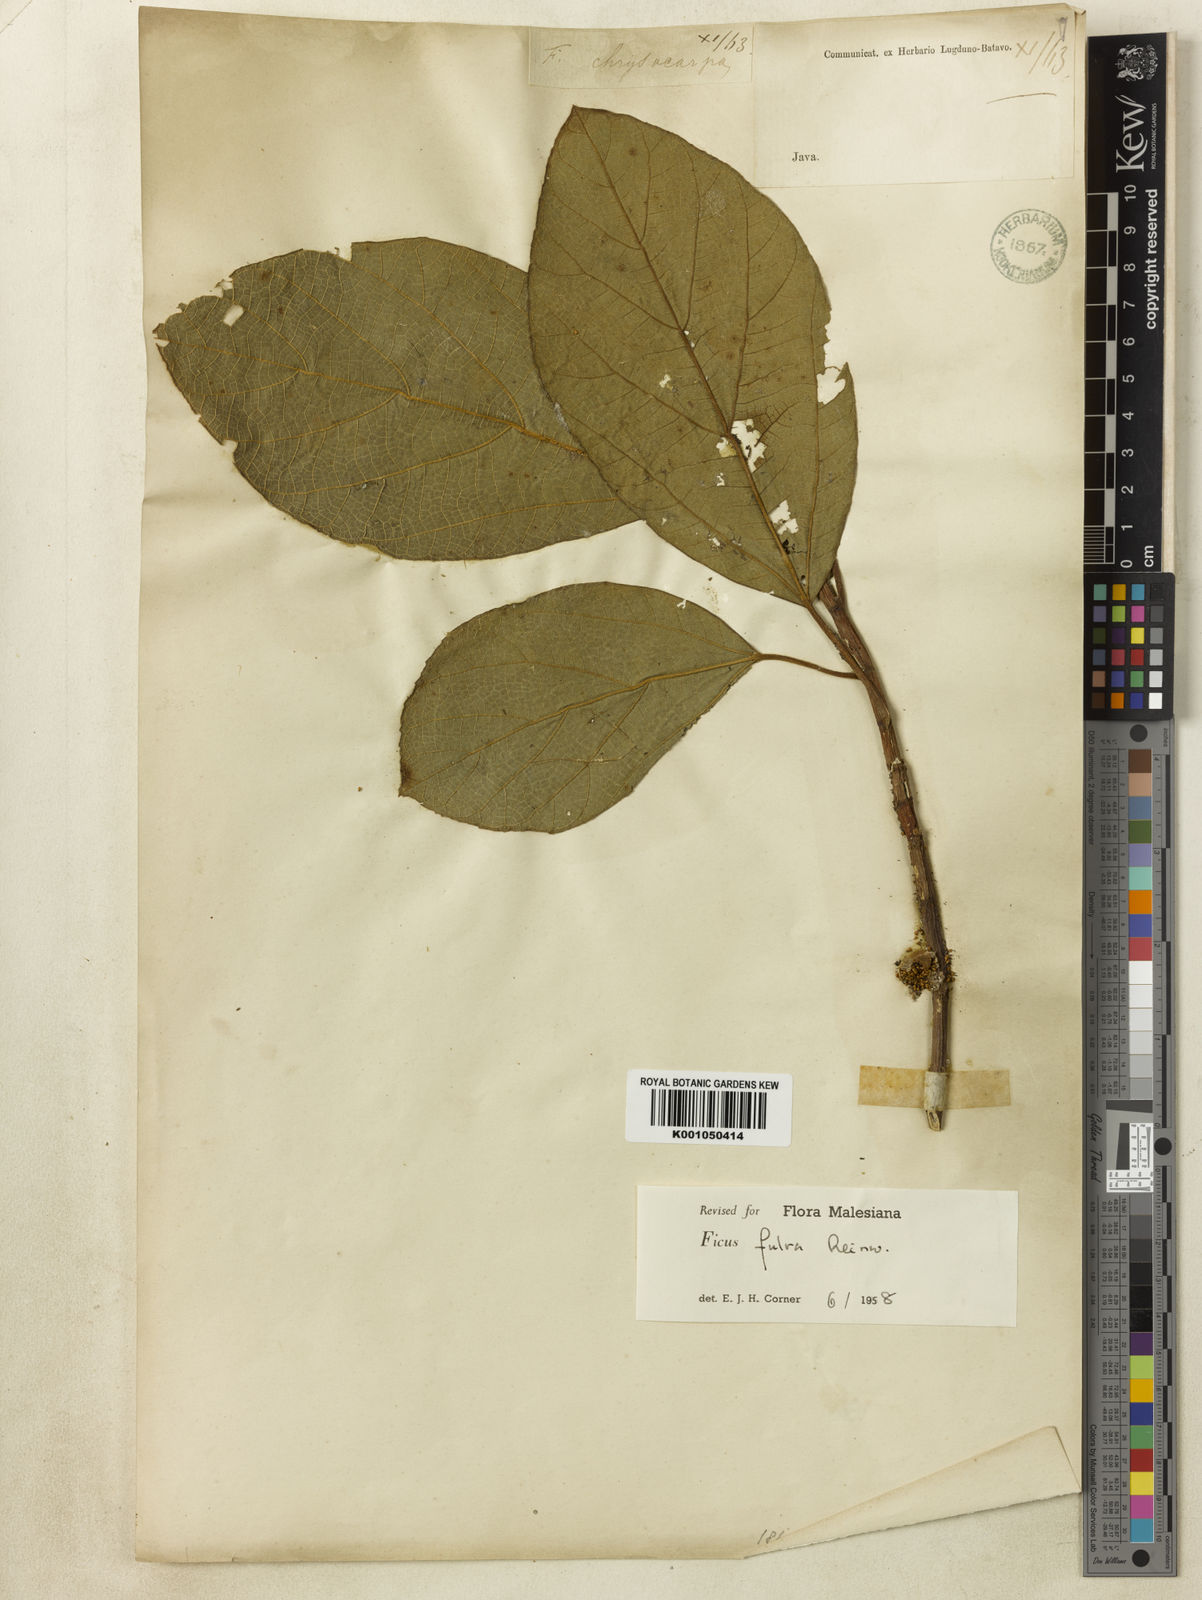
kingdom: Plantae
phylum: Tracheophyta
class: Magnoliopsida
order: Rosales
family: Moraceae
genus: Ficus
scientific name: Ficus fulva
